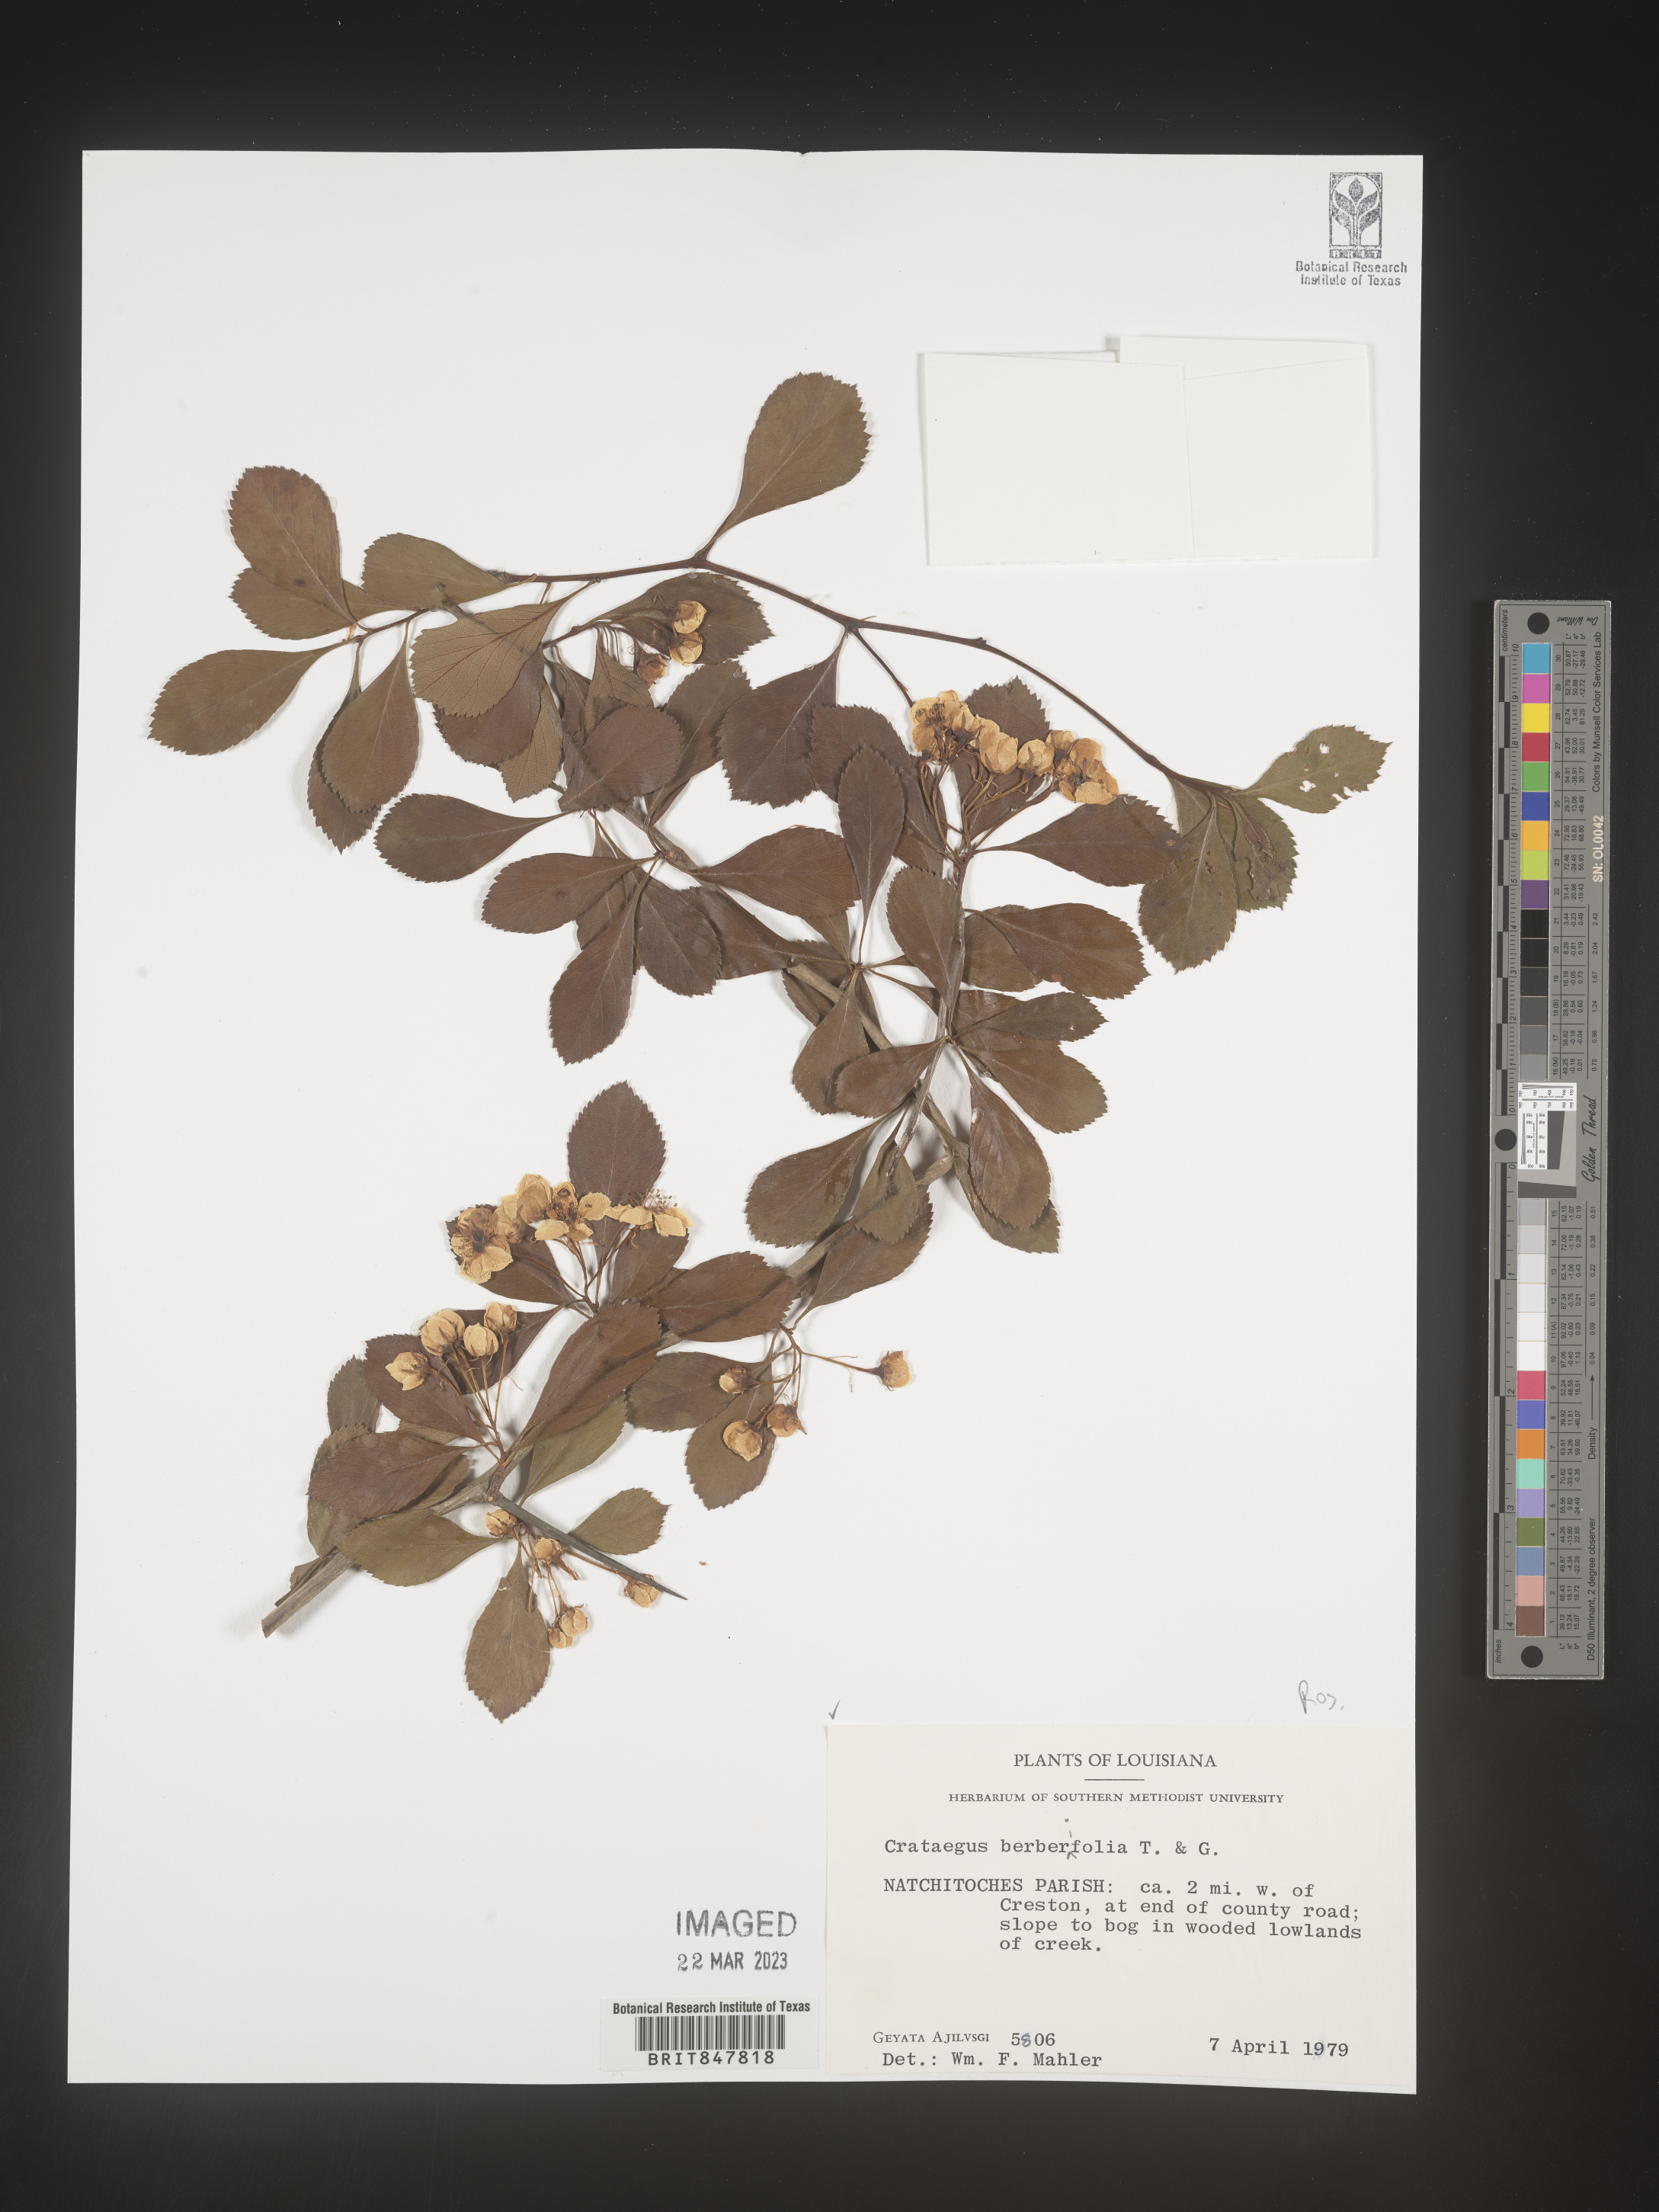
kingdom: Plantae
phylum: Tracheophyta
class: Magnoliopsida
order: Rosales
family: Rosaceae
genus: Crataegus
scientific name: Crataegus
